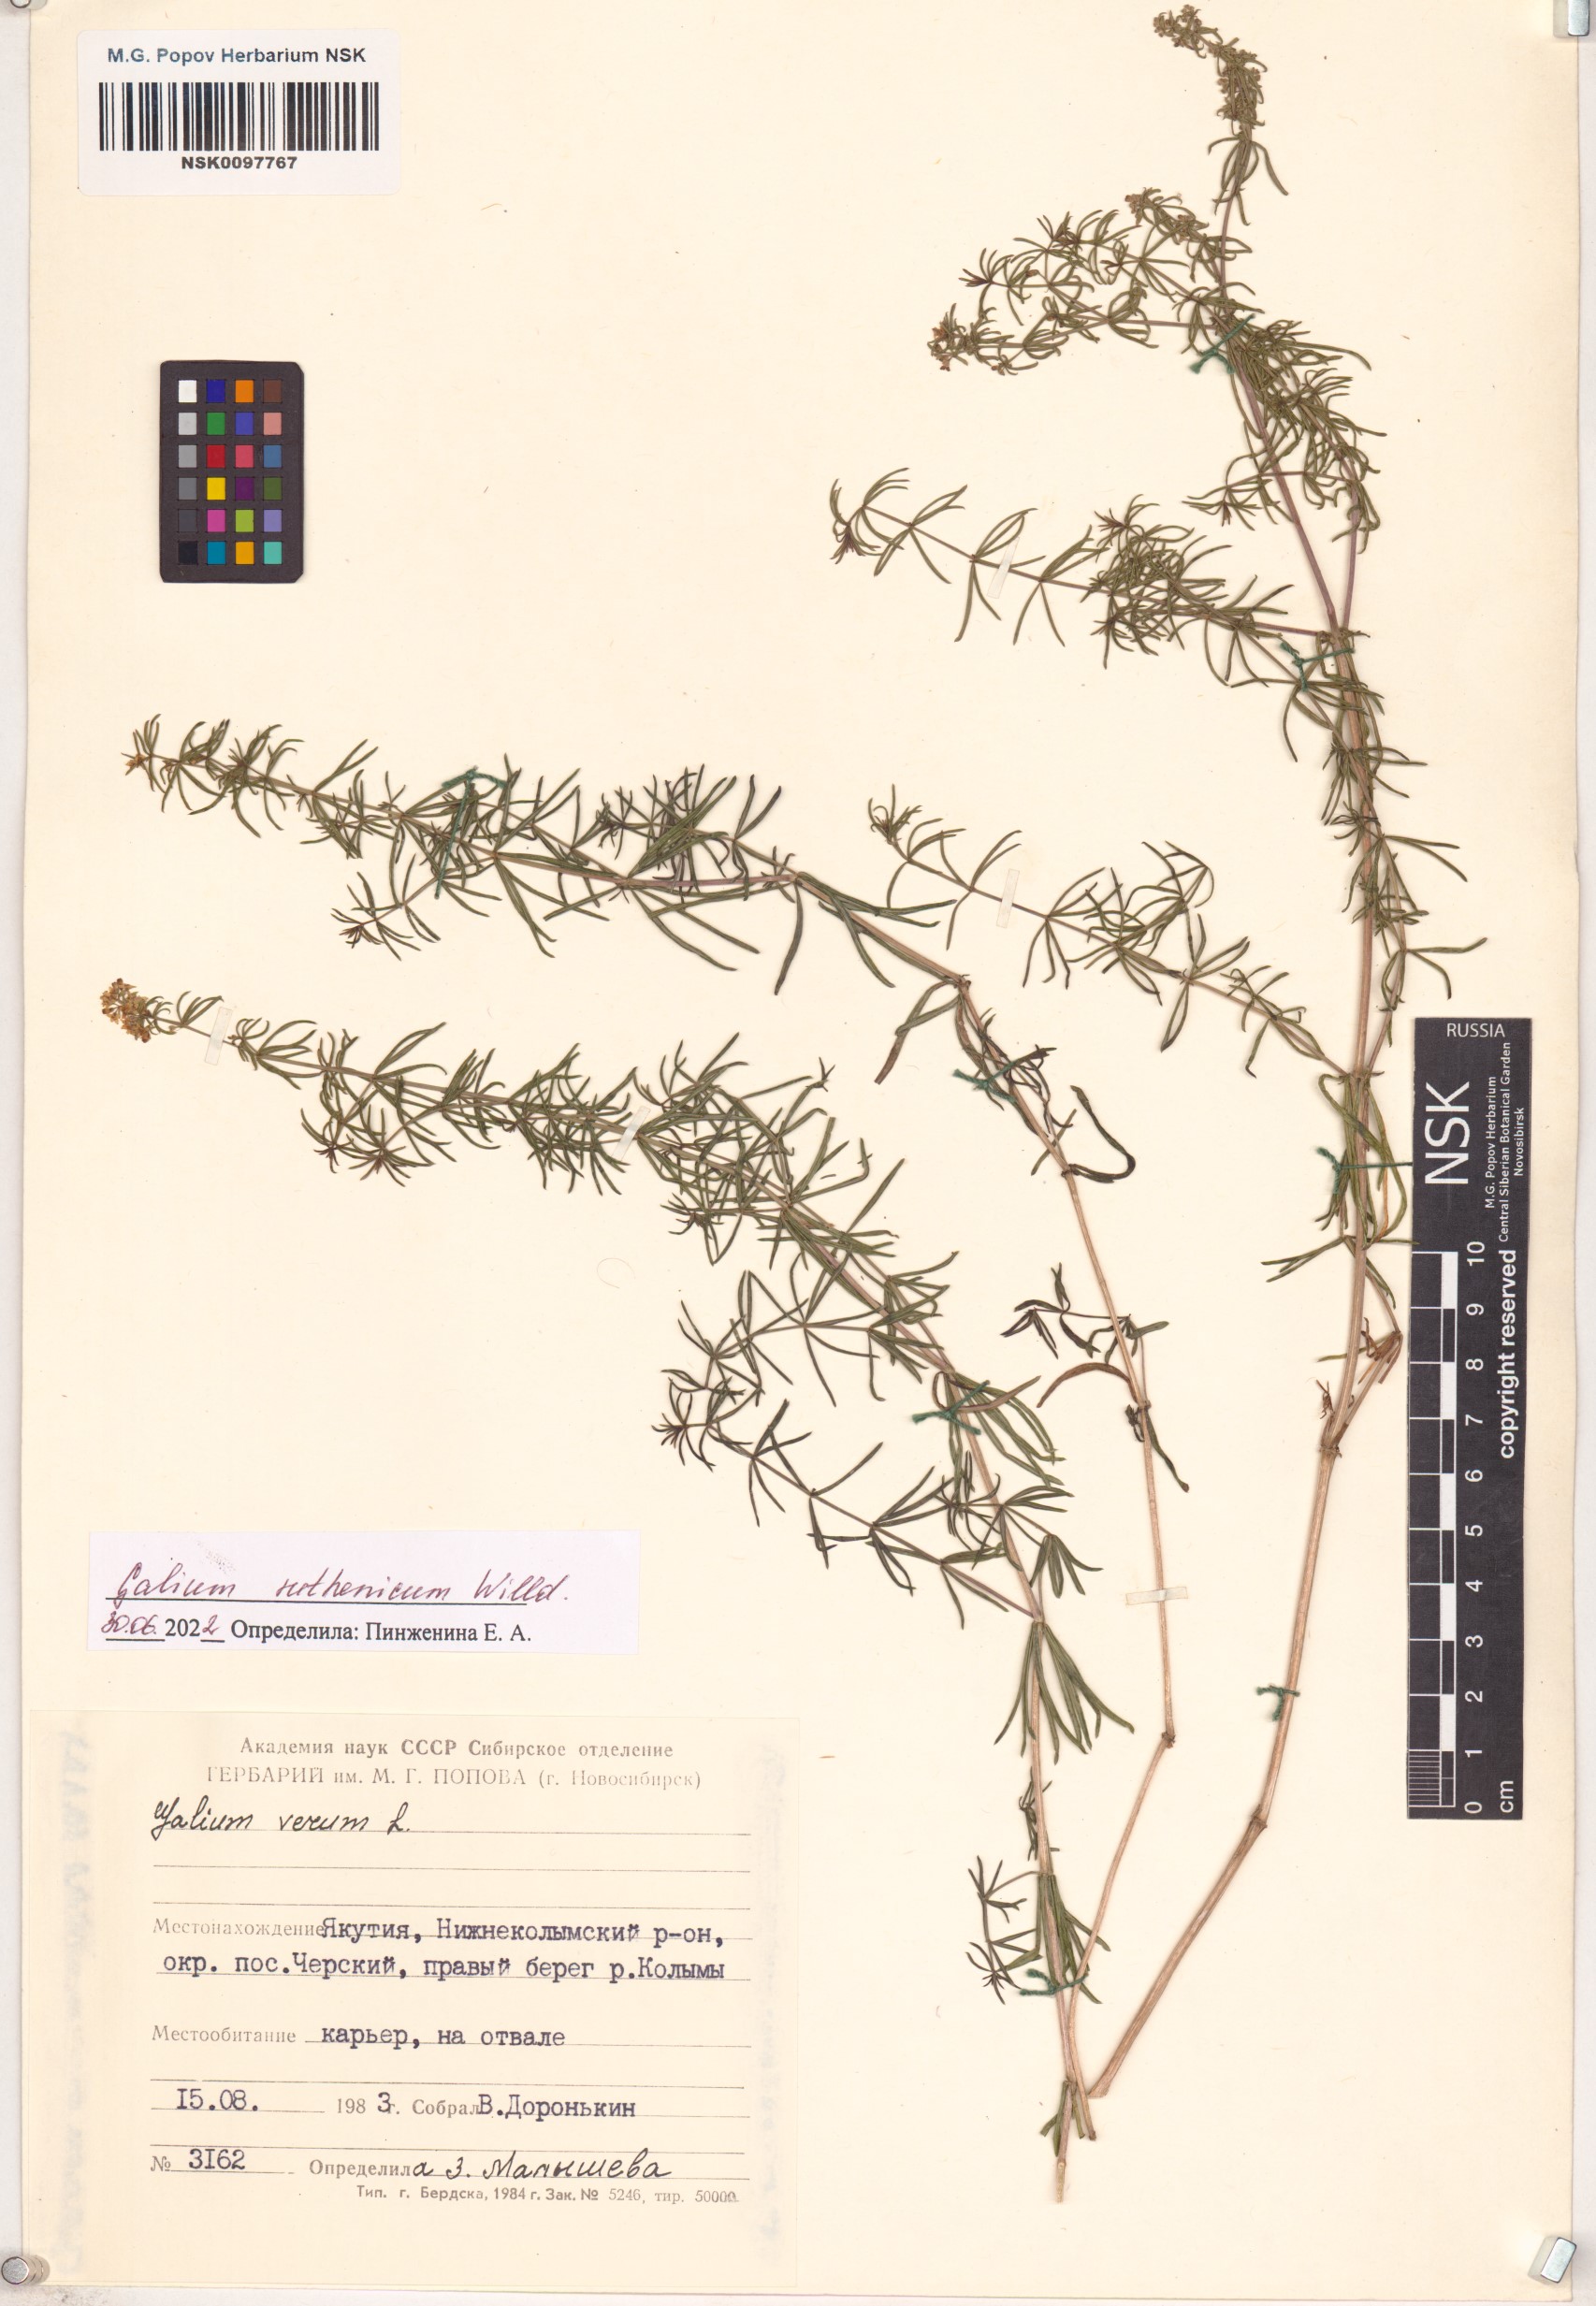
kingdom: Plantae
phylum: Tracheophyta
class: Magnoliopsida
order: Gentianales
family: Rubiaceae
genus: Galium
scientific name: Galium verum
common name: Lady's bedstraw
